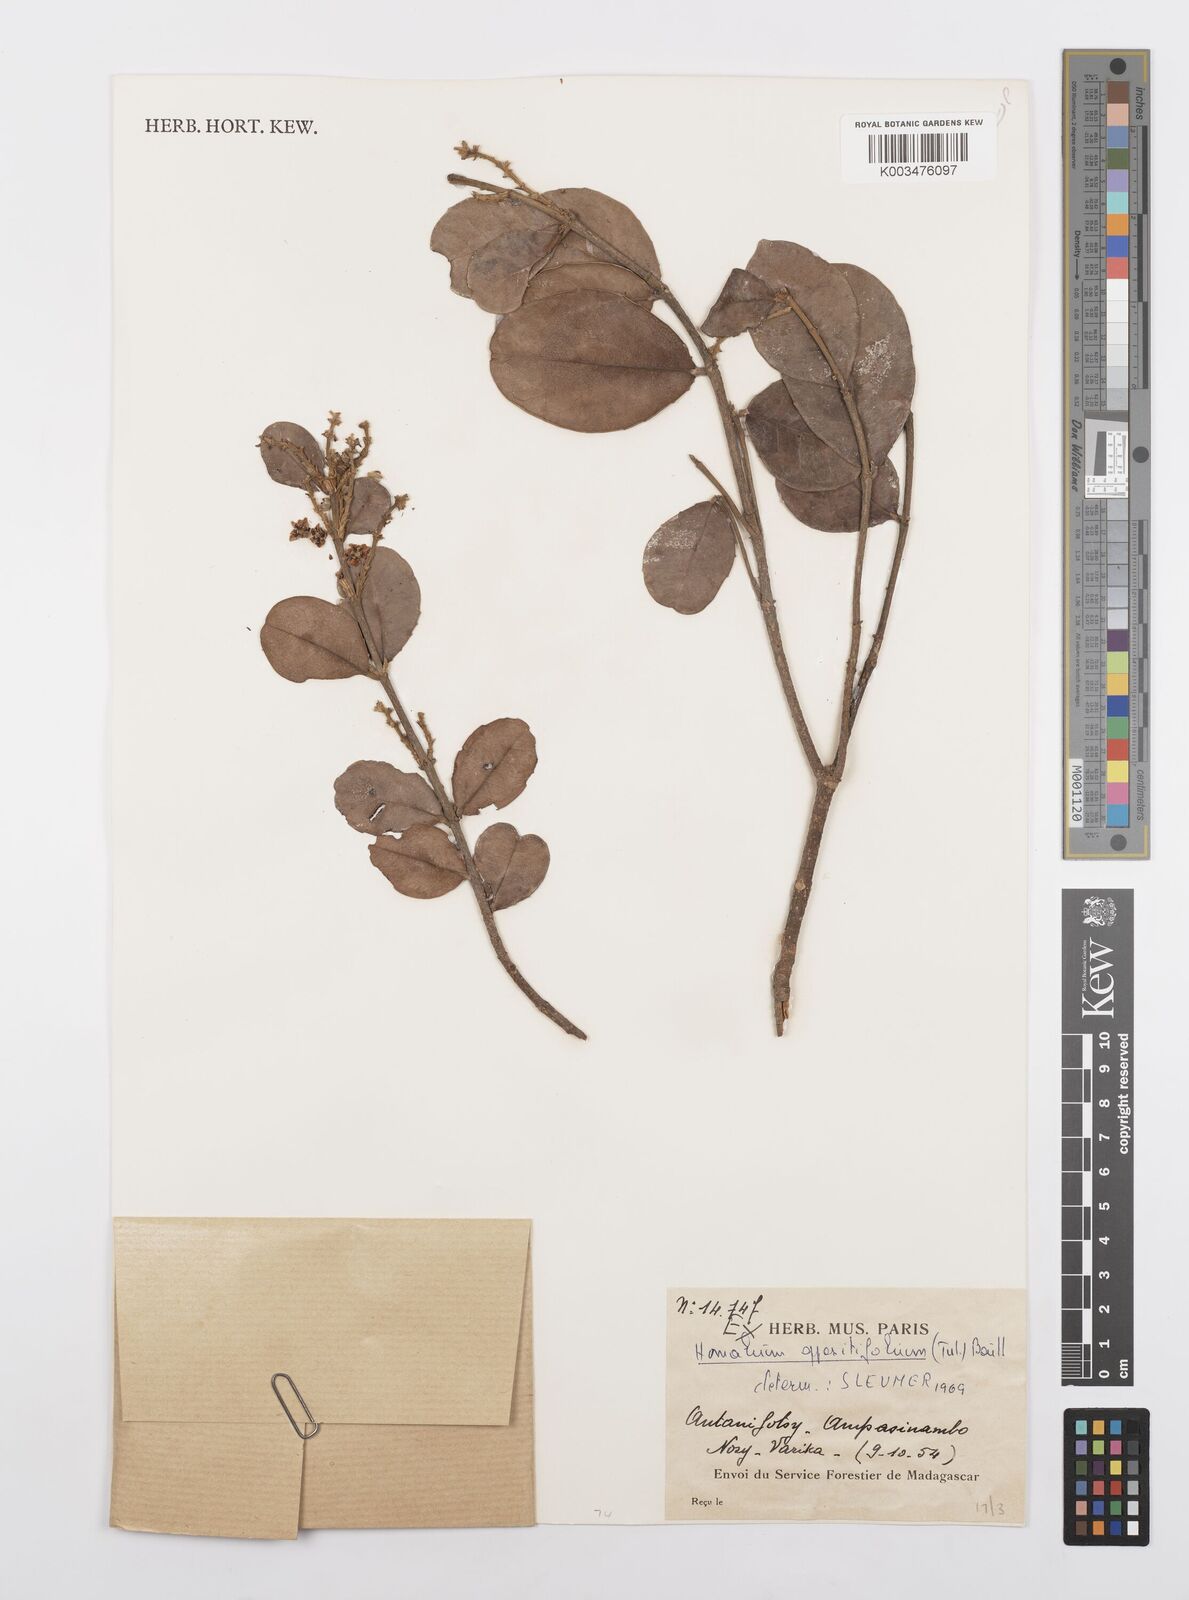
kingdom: Plantae
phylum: Tracheophyta
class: Magnoliopsida
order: Malpighiales
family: Salicaceae
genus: Homalium
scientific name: Homalium oppositifolium
